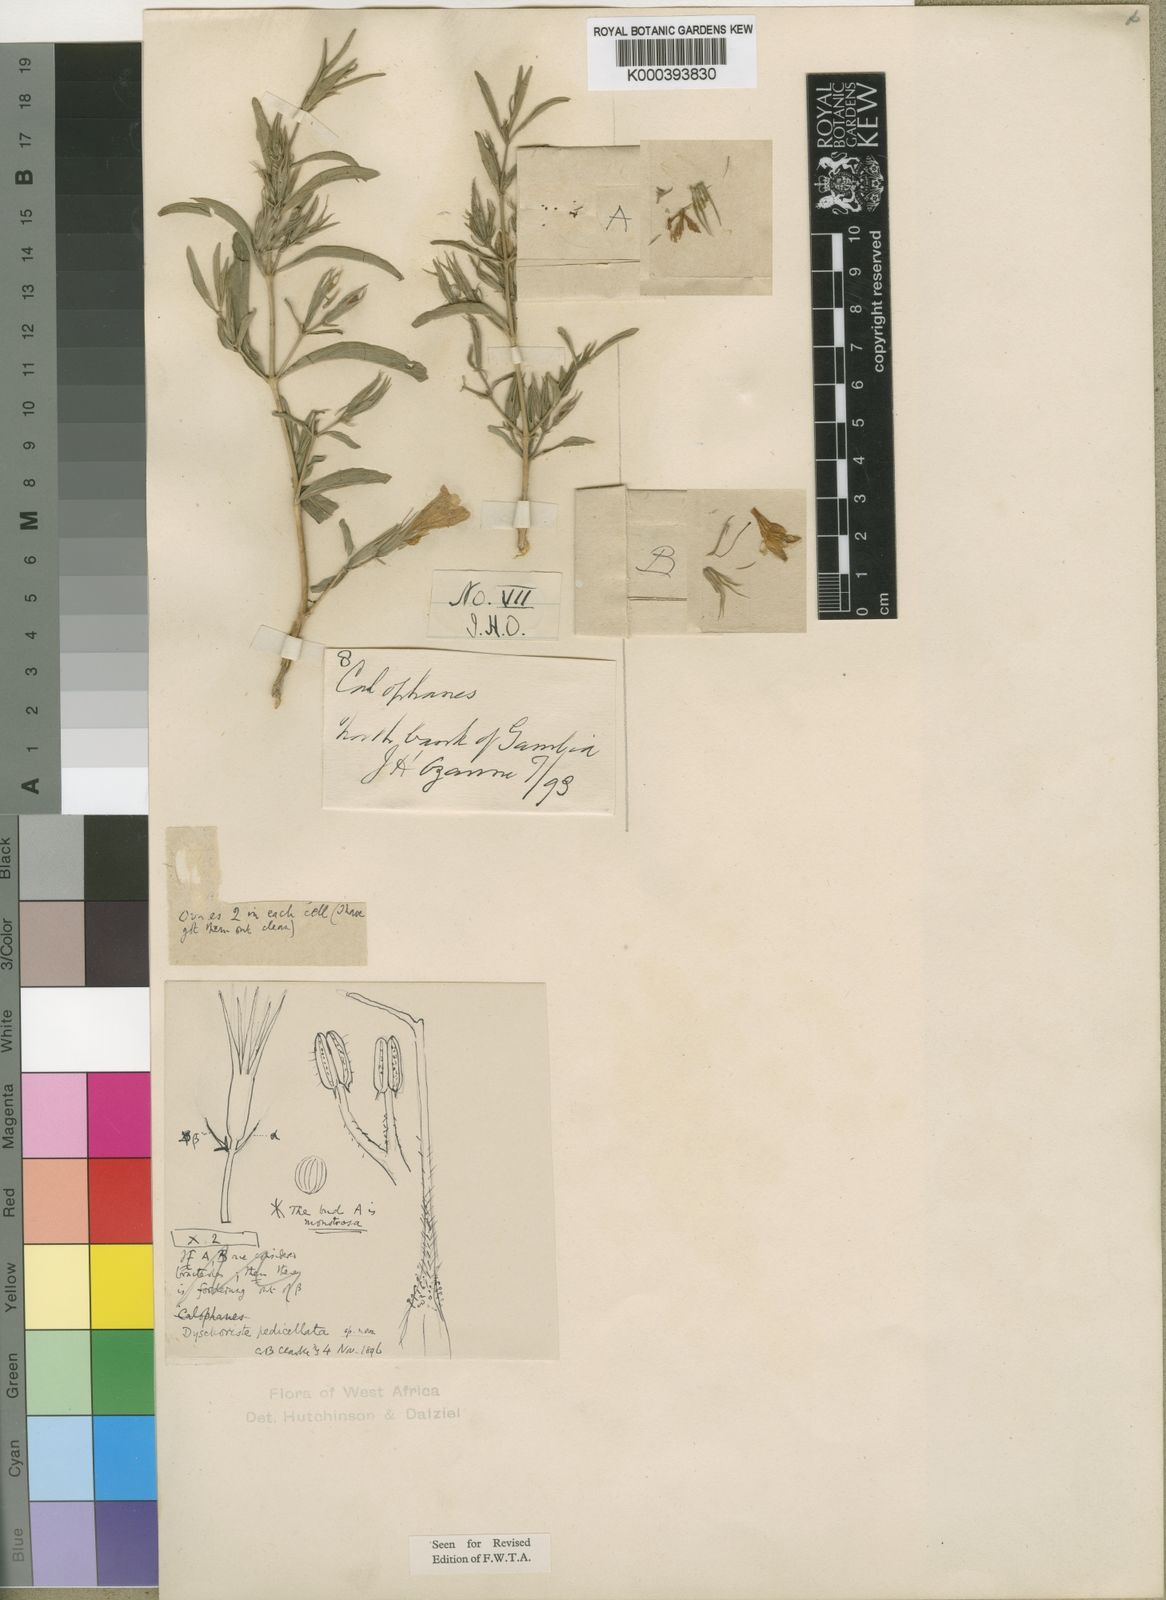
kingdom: Plantae
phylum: Tracheophyta
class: Magnoliopsida
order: Lamiales
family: Acanthaceae
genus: Dyschoriste
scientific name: Dyschoriste heudelotiana
